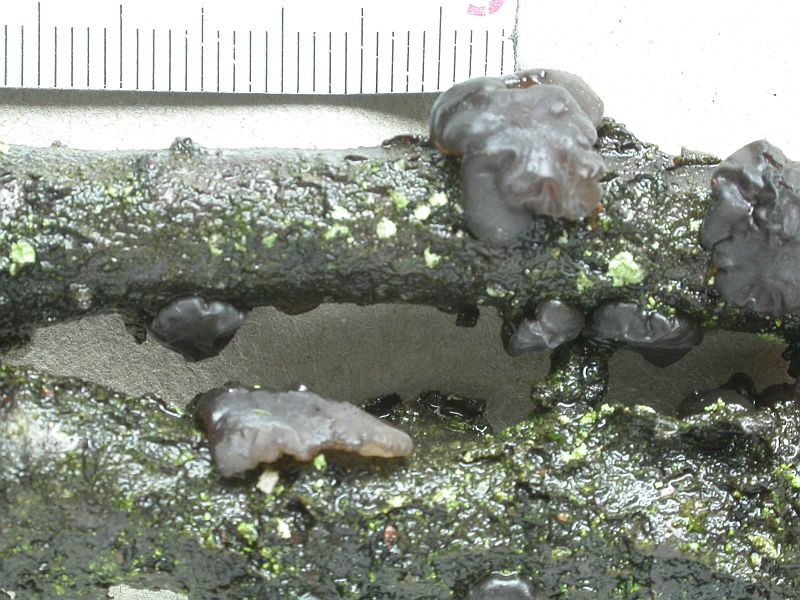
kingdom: Fungi
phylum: Basidiomycota
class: Agaricomycetes
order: Auriculariales
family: Auriculariaceae
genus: Exidia
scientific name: Exidia nigricans
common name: almindelig bævretop
